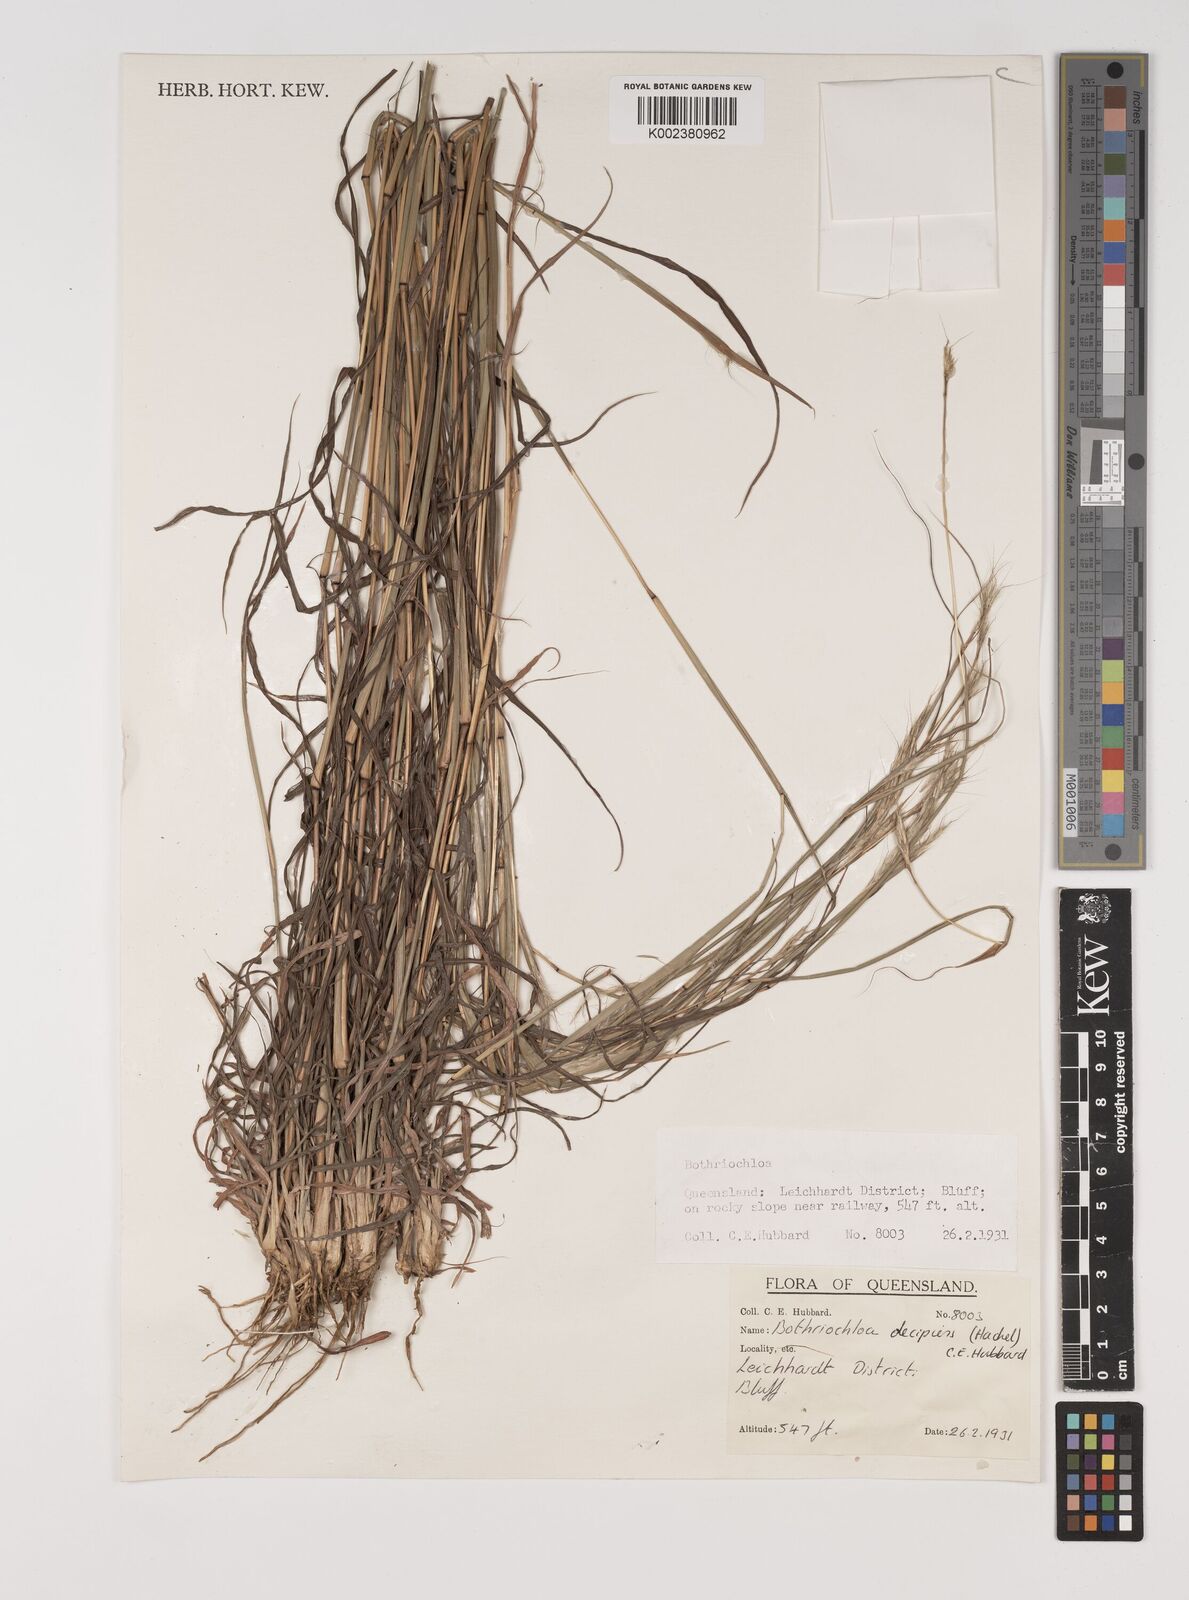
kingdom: Plantae
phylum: Tracheophyta
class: Liliopsida
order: Poales
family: Poaceae
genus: Bothriochloa
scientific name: Bothriochloa decipiens
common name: Pitted-bluegrass
